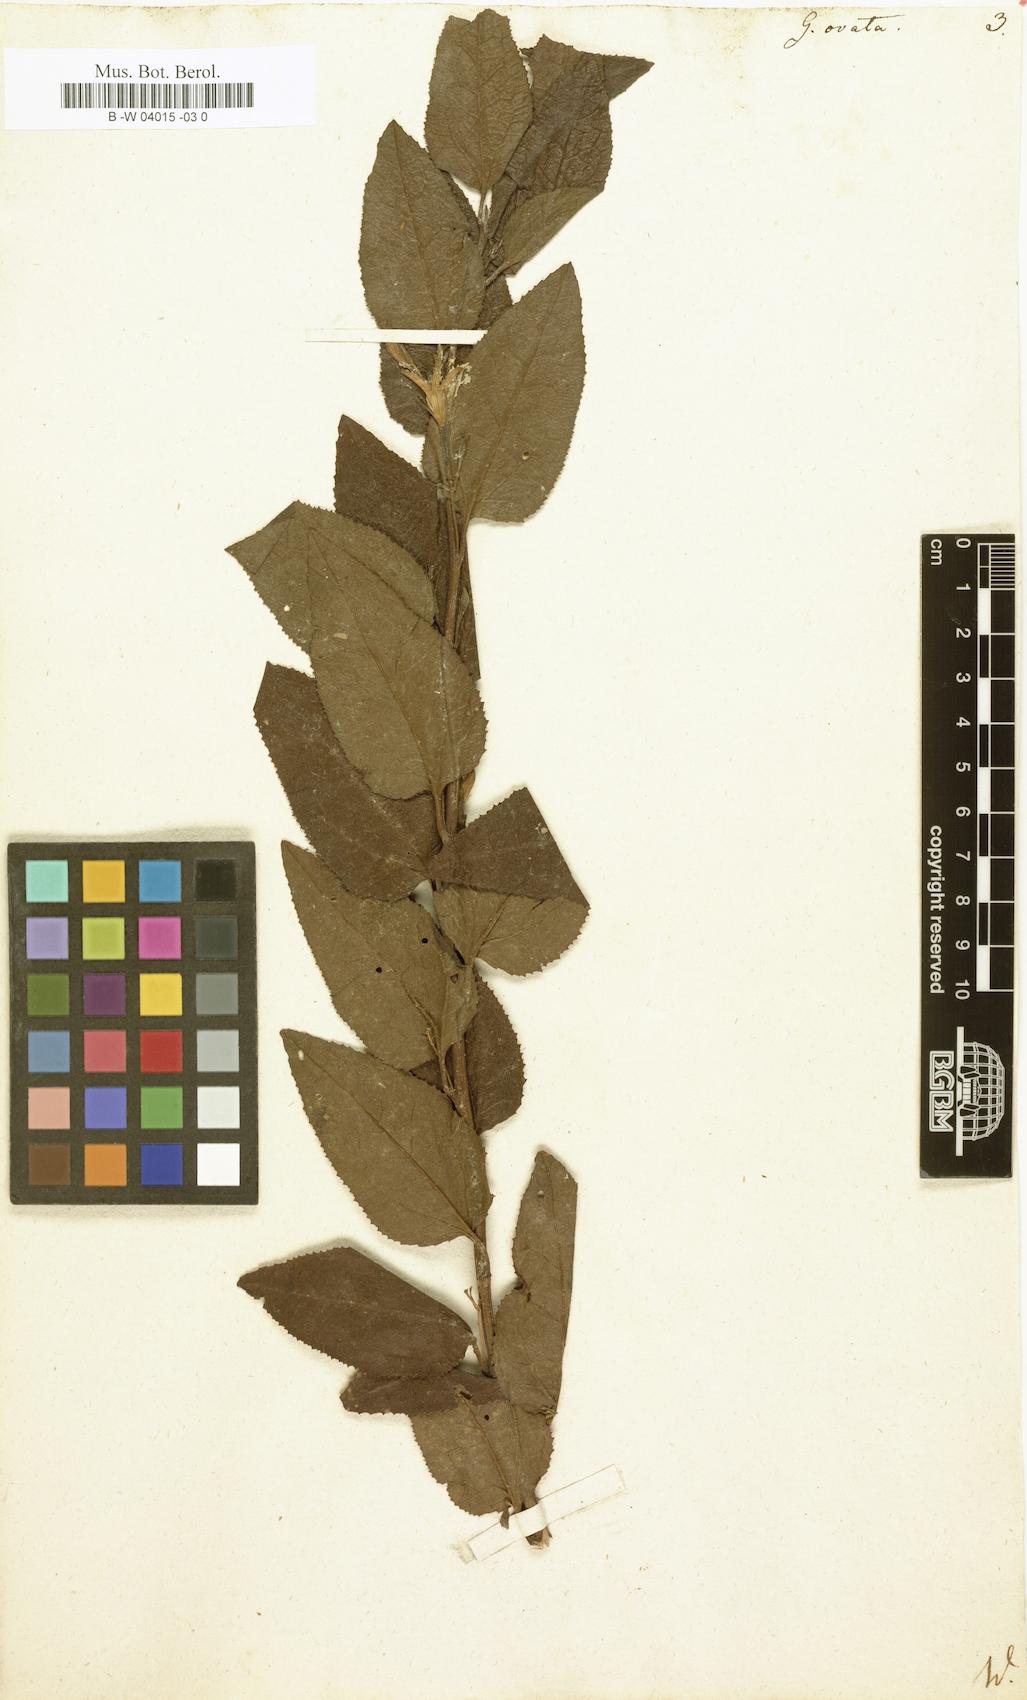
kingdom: Plantae
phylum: Tracheophyta
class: Magnoliopsida
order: Asterales
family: Goodeniaceae
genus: Goodenia
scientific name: Goodenia ovata
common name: Hop goodenia
